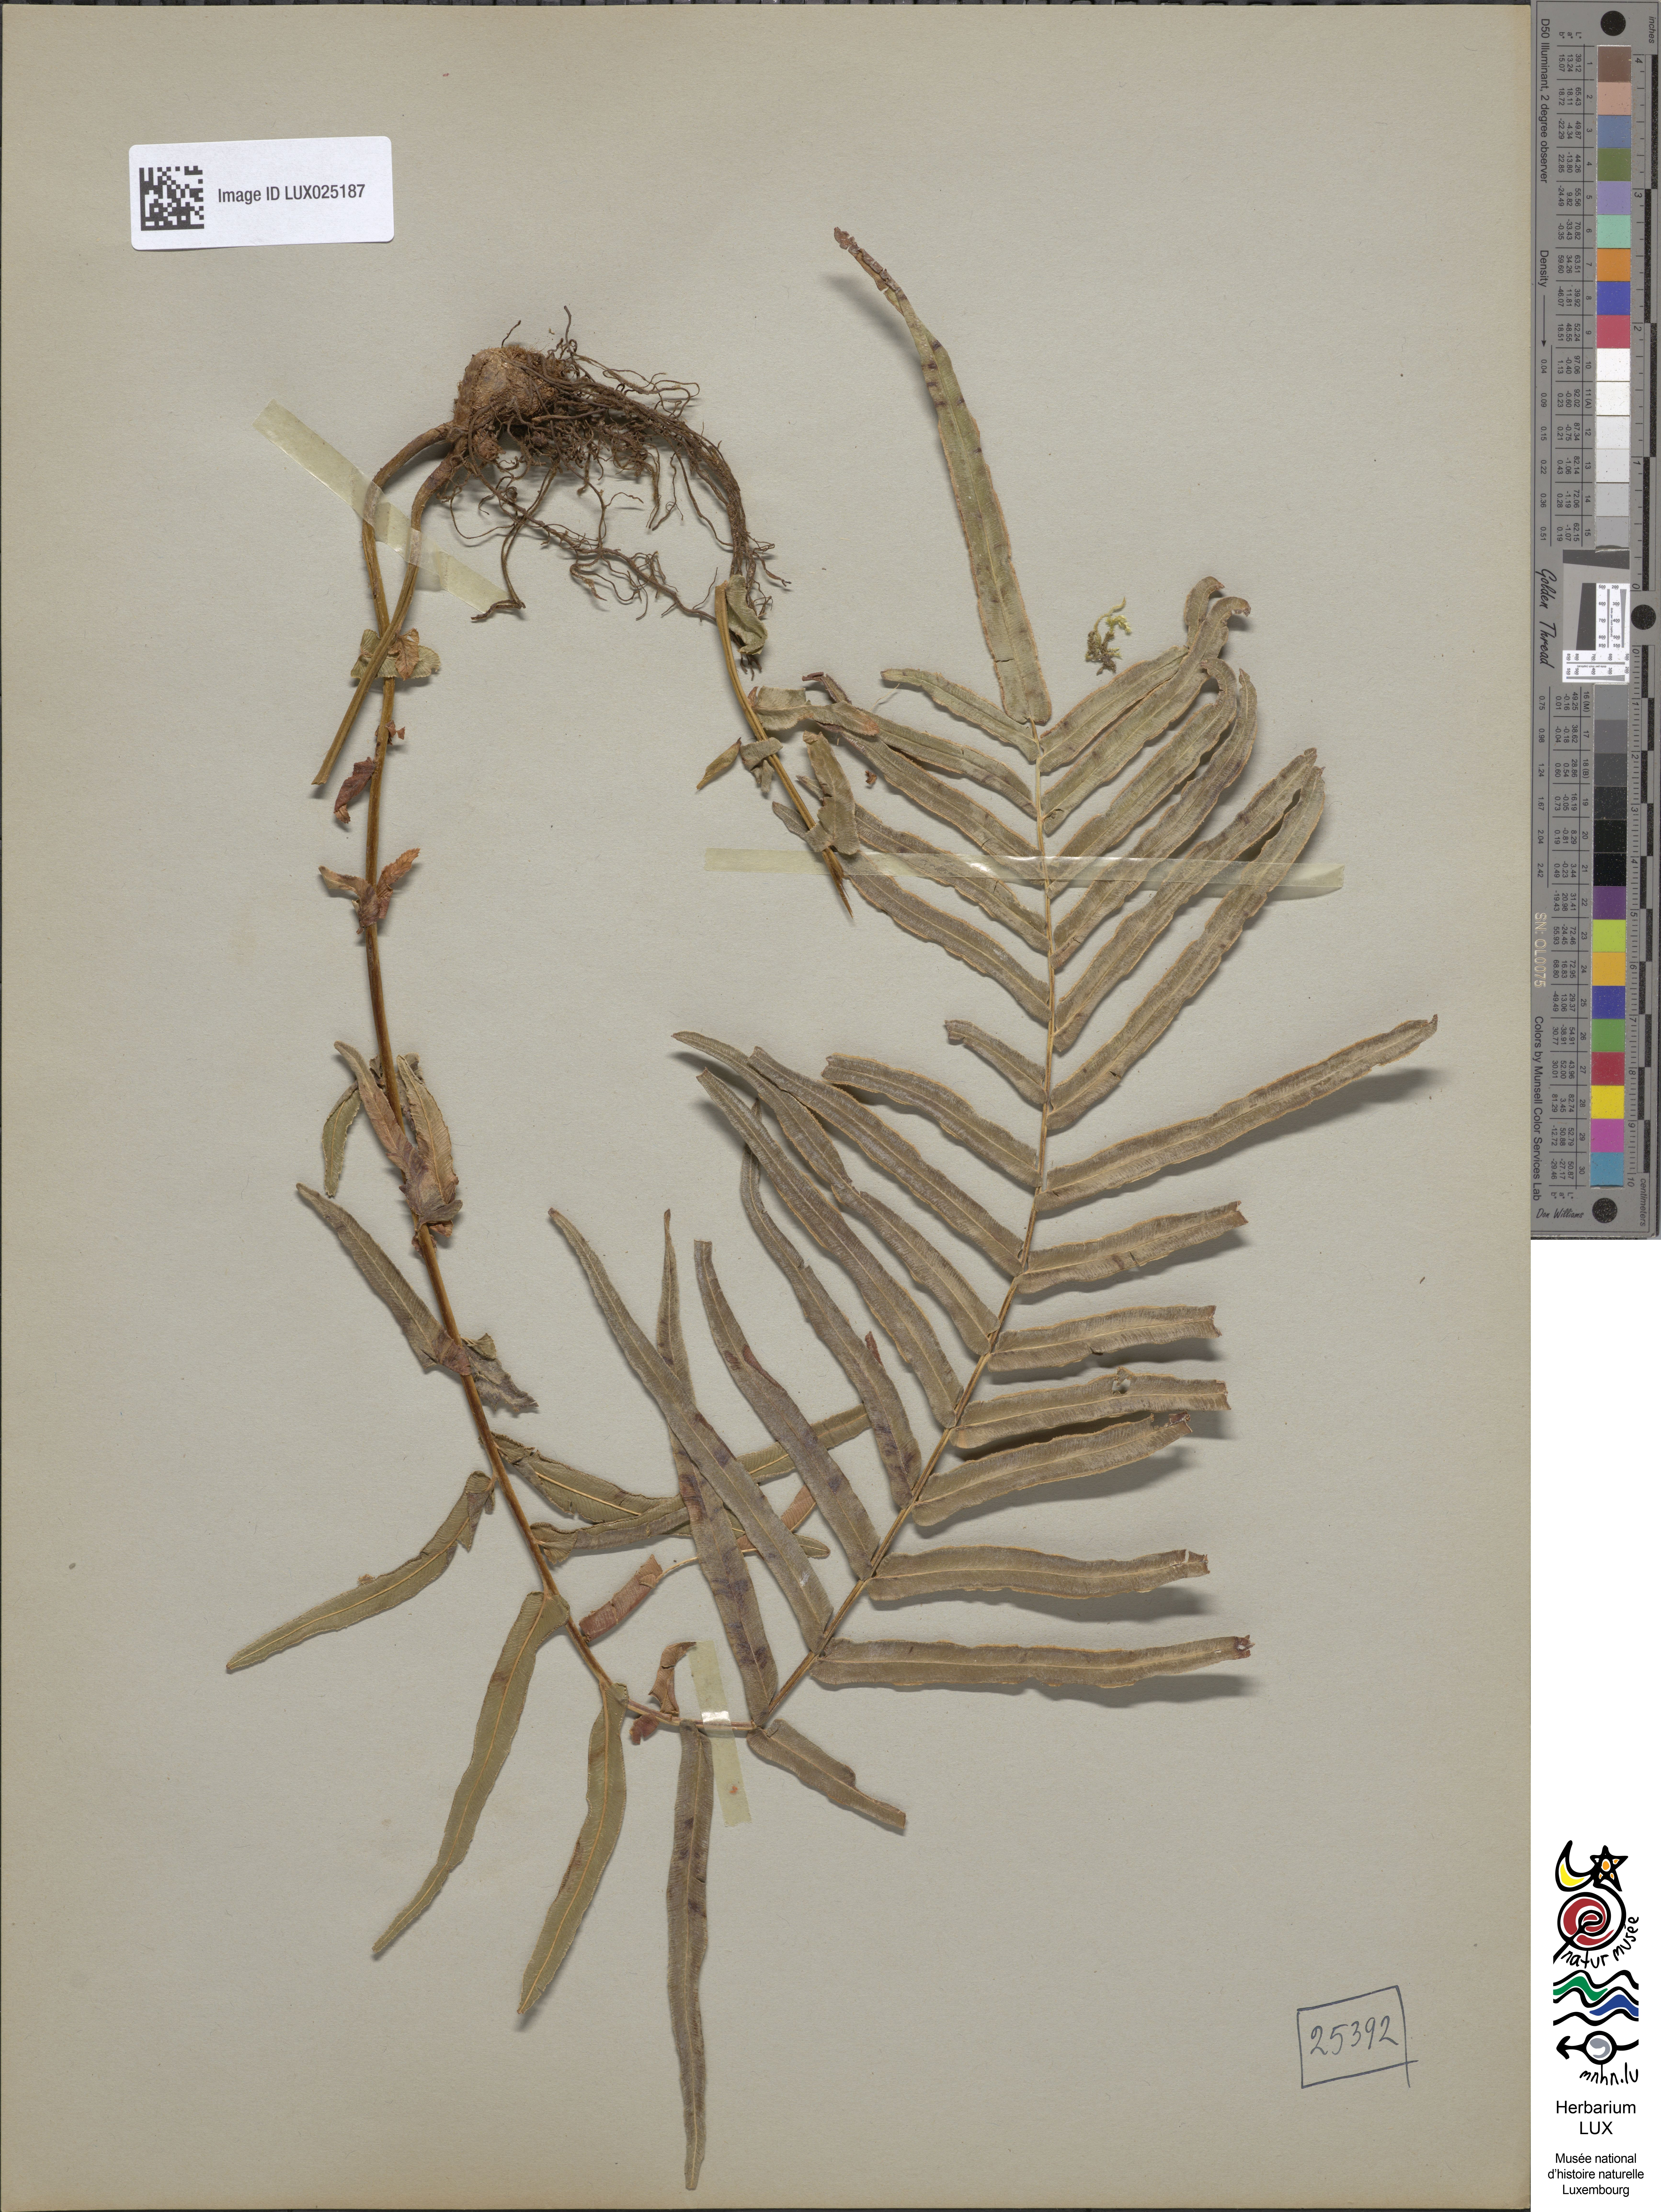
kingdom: Plantae
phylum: Tracheophyta
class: Polypodiopsida
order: Polypodiales
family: Pteridaceae
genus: Pteris
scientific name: Pteris vittata
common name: Ladder brake
